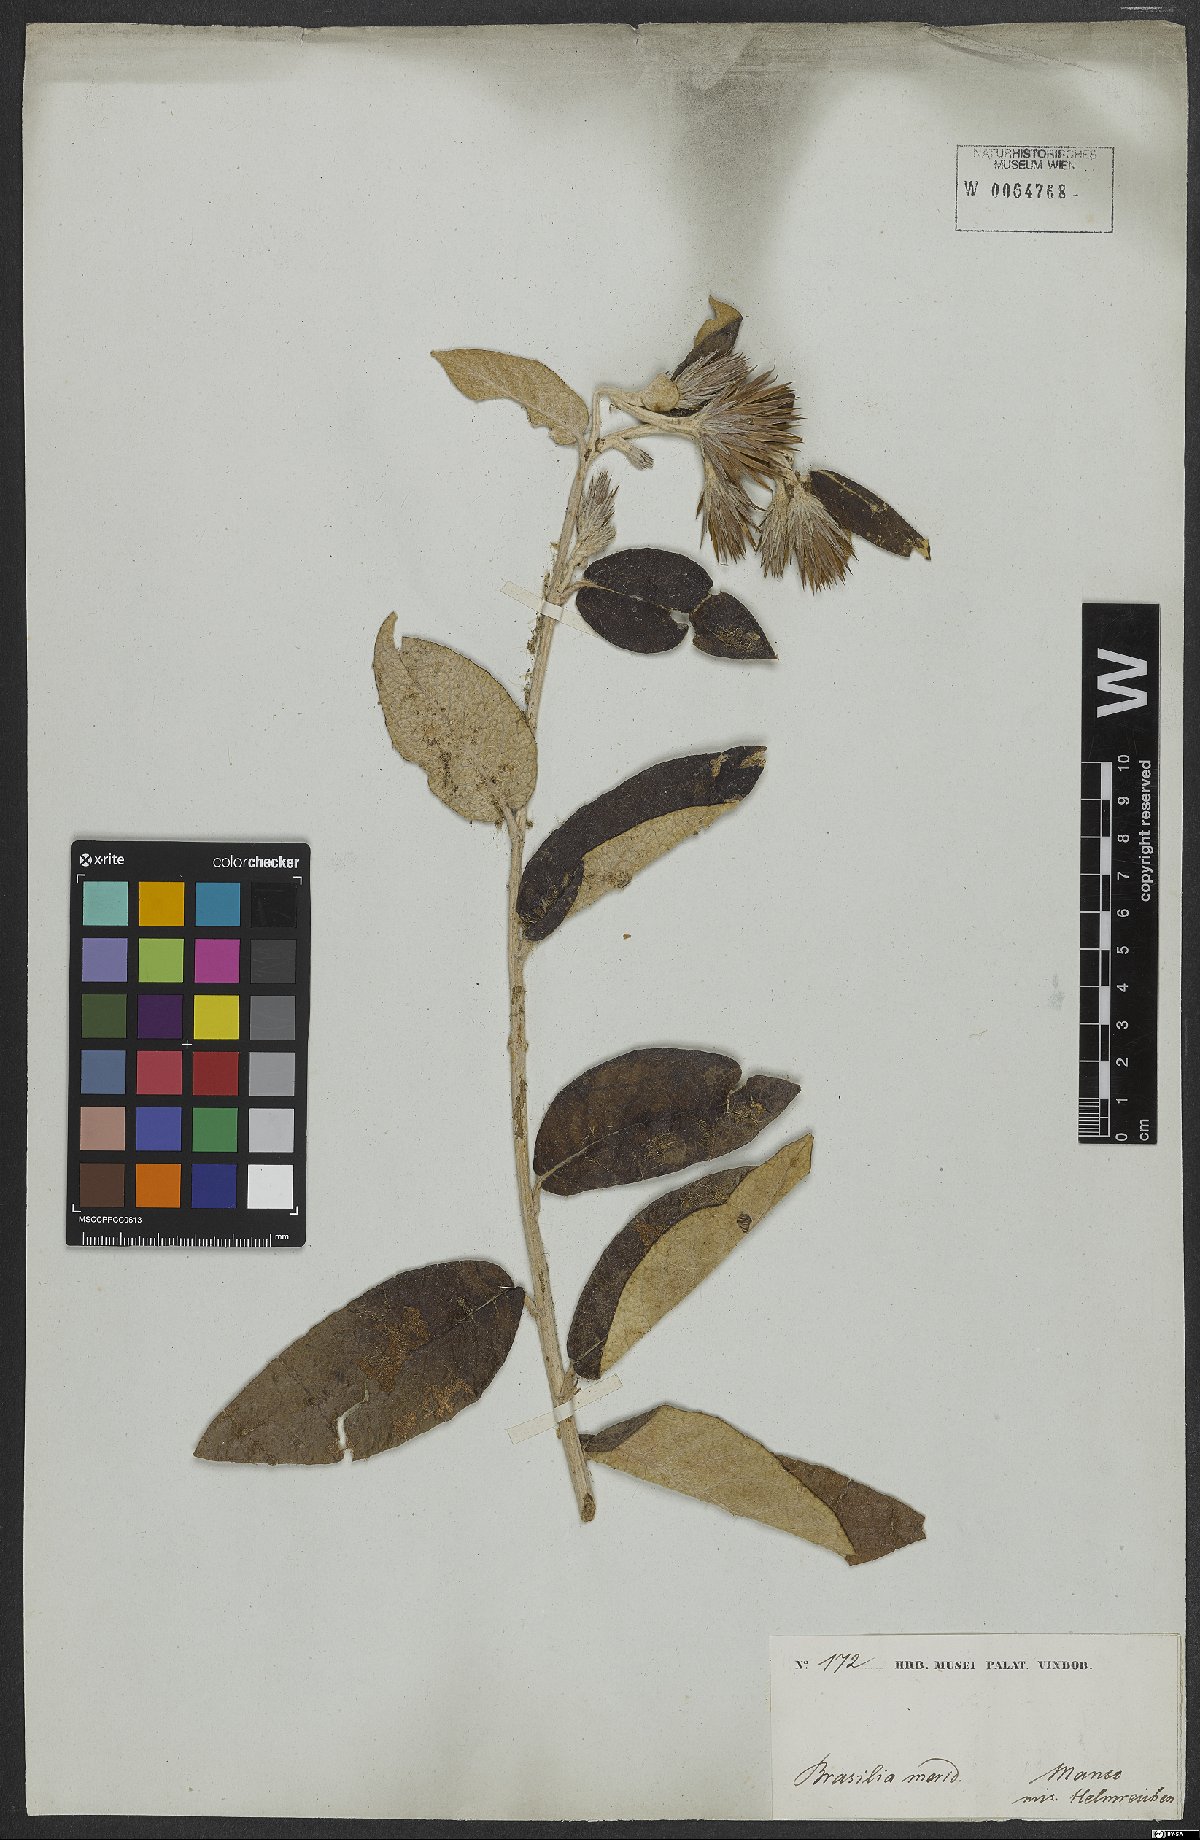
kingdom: Plantae
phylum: Tracheophyta
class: Magnoliopsida
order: Asterales
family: Asteraceae
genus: Vernonia
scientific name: Vernonia
